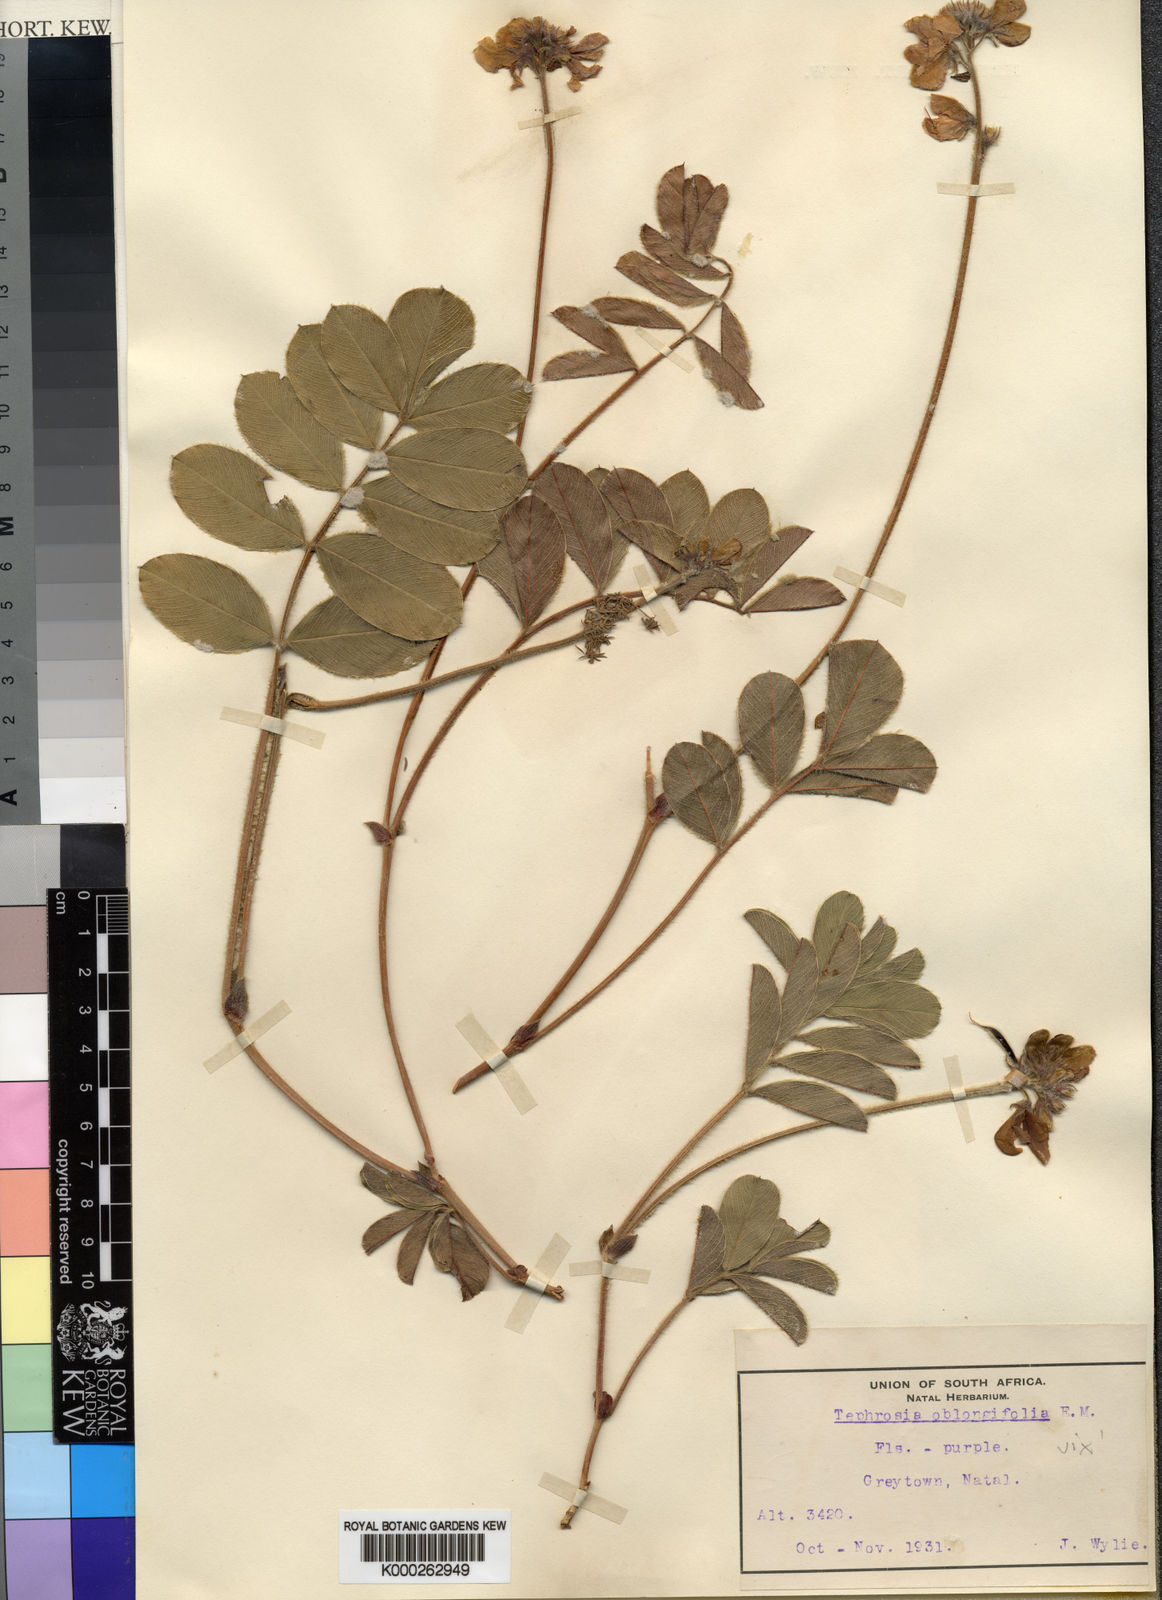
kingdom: Plantae
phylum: Tracheophyta
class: Magnoliopsida
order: Fabales
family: Fabaceae
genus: Tephrosia
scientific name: Tephrosia albissima
